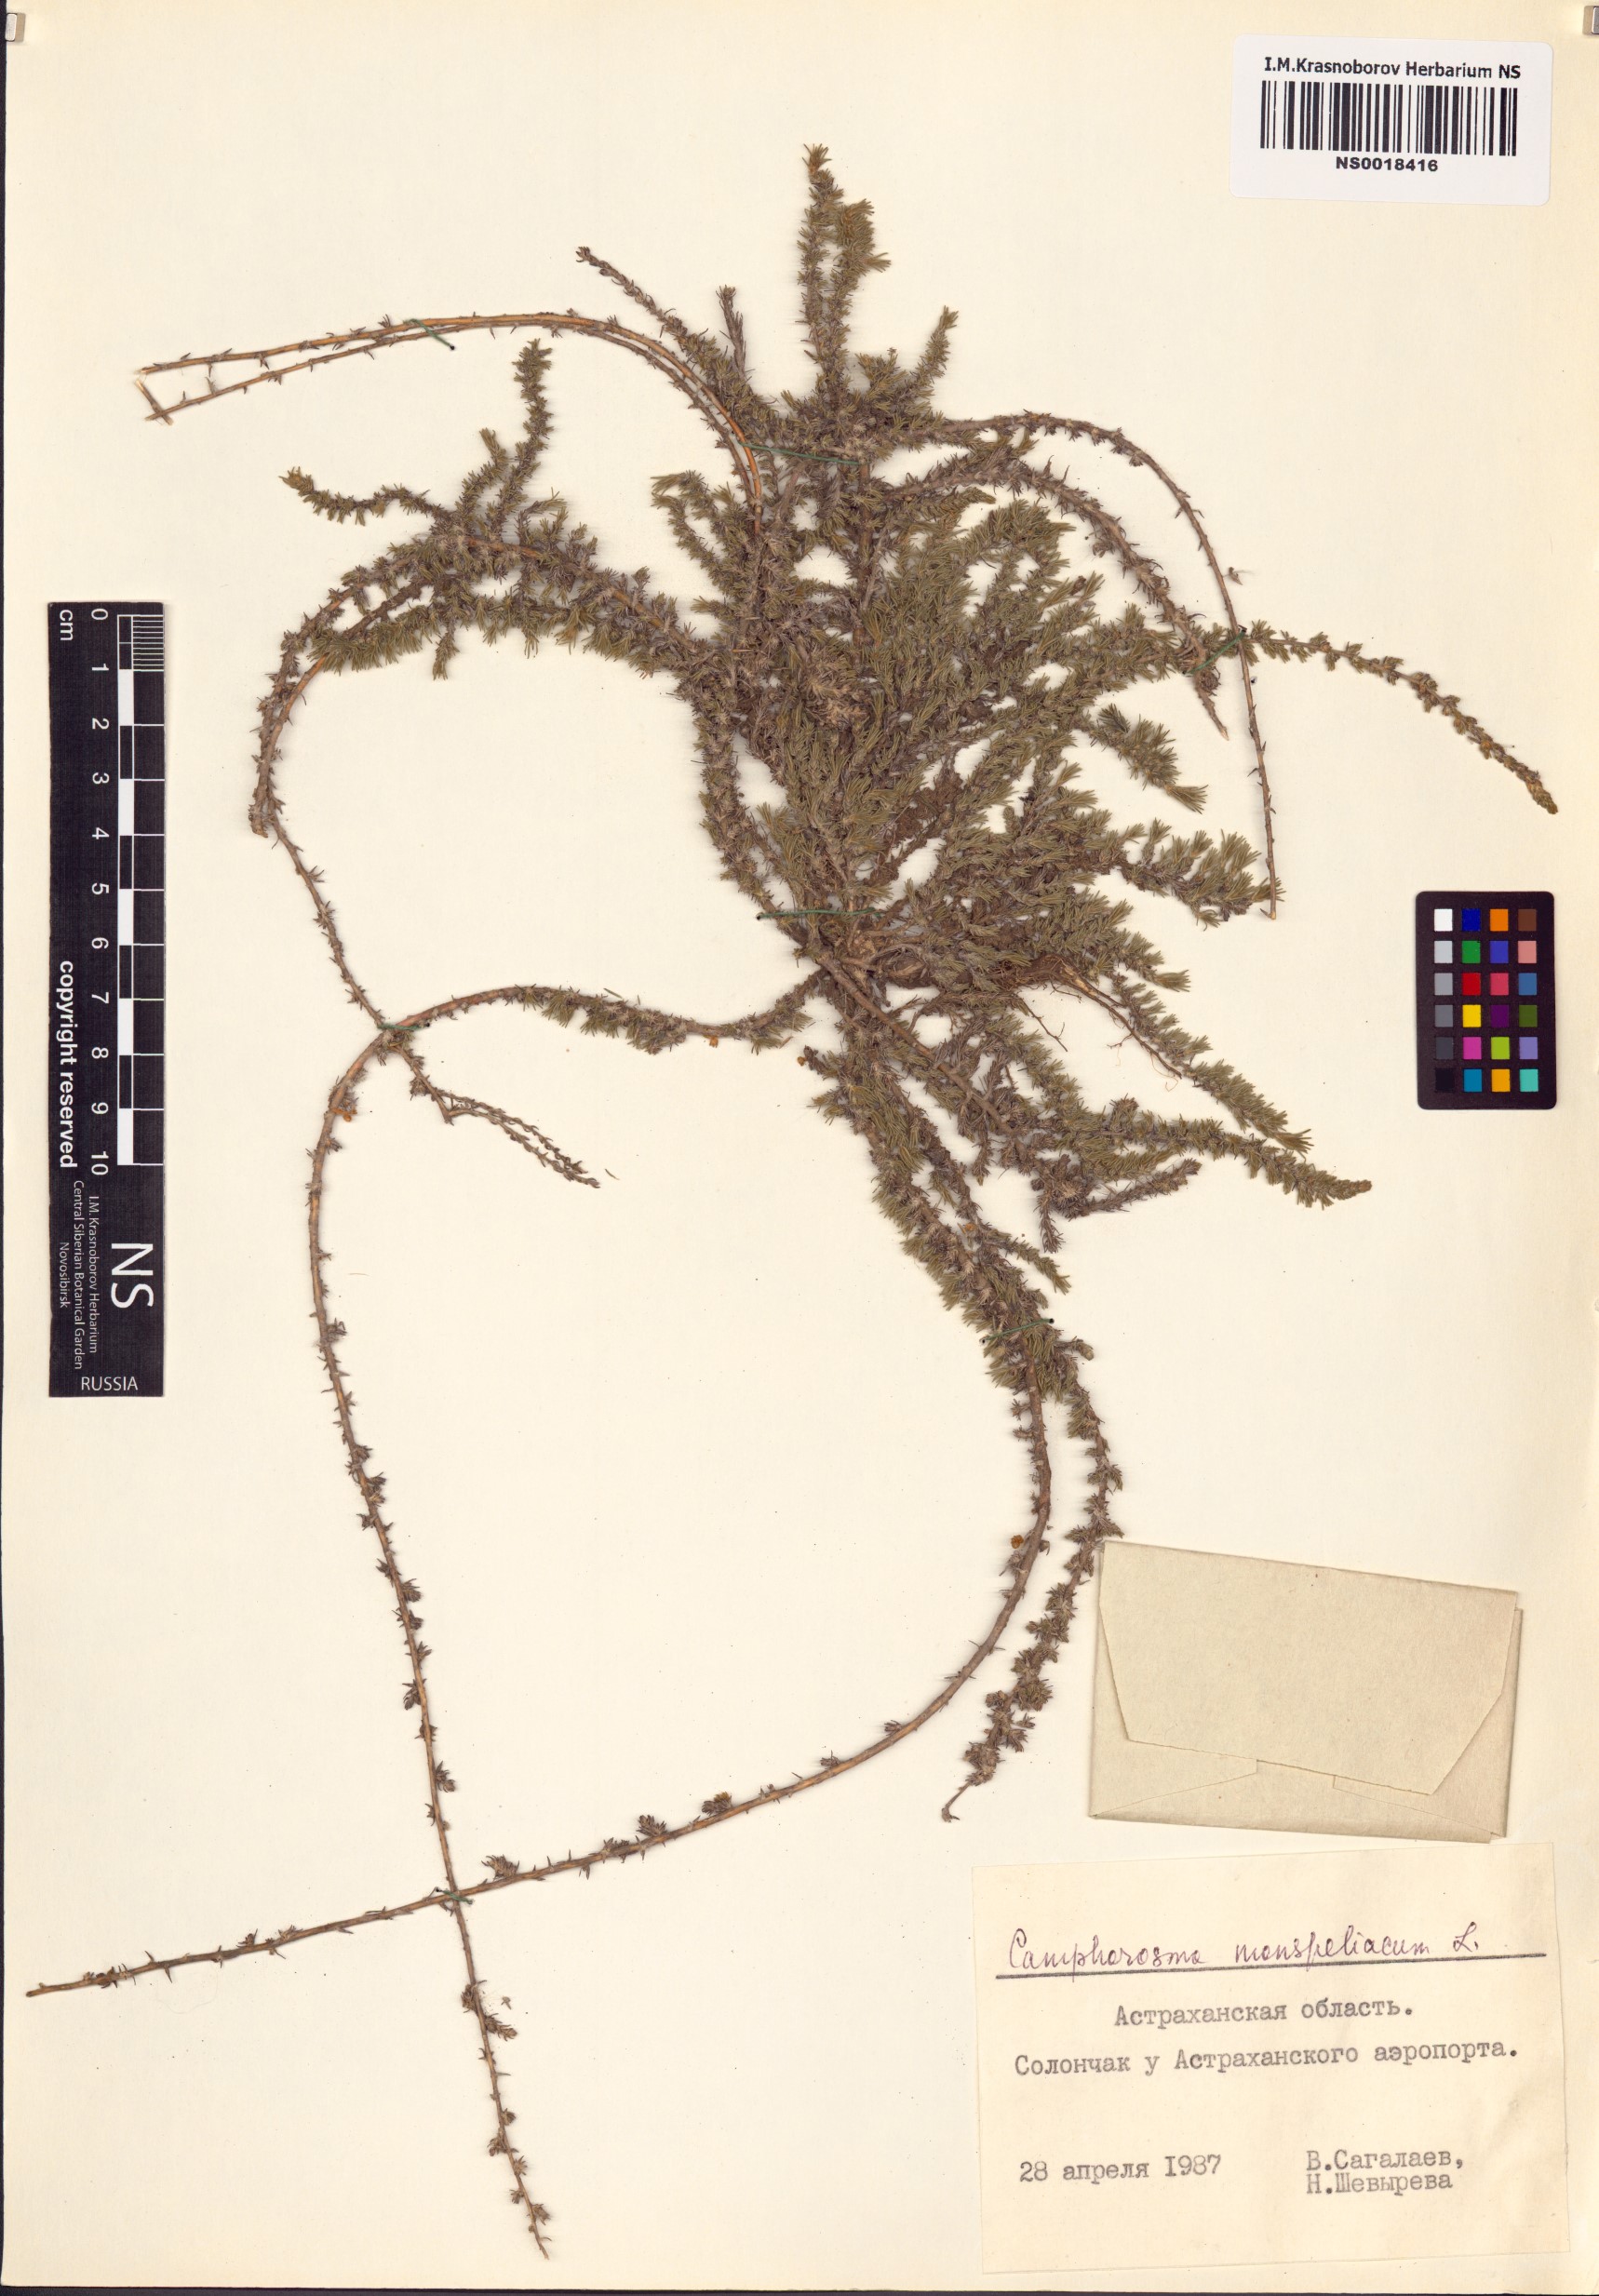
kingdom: Plantae
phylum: Tracheophyta
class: Magnoliopsida
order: Caryophyllales
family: Amaranthaceae
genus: Camphorosma
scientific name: Camphorosma monspeliaca
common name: Camphorfume
